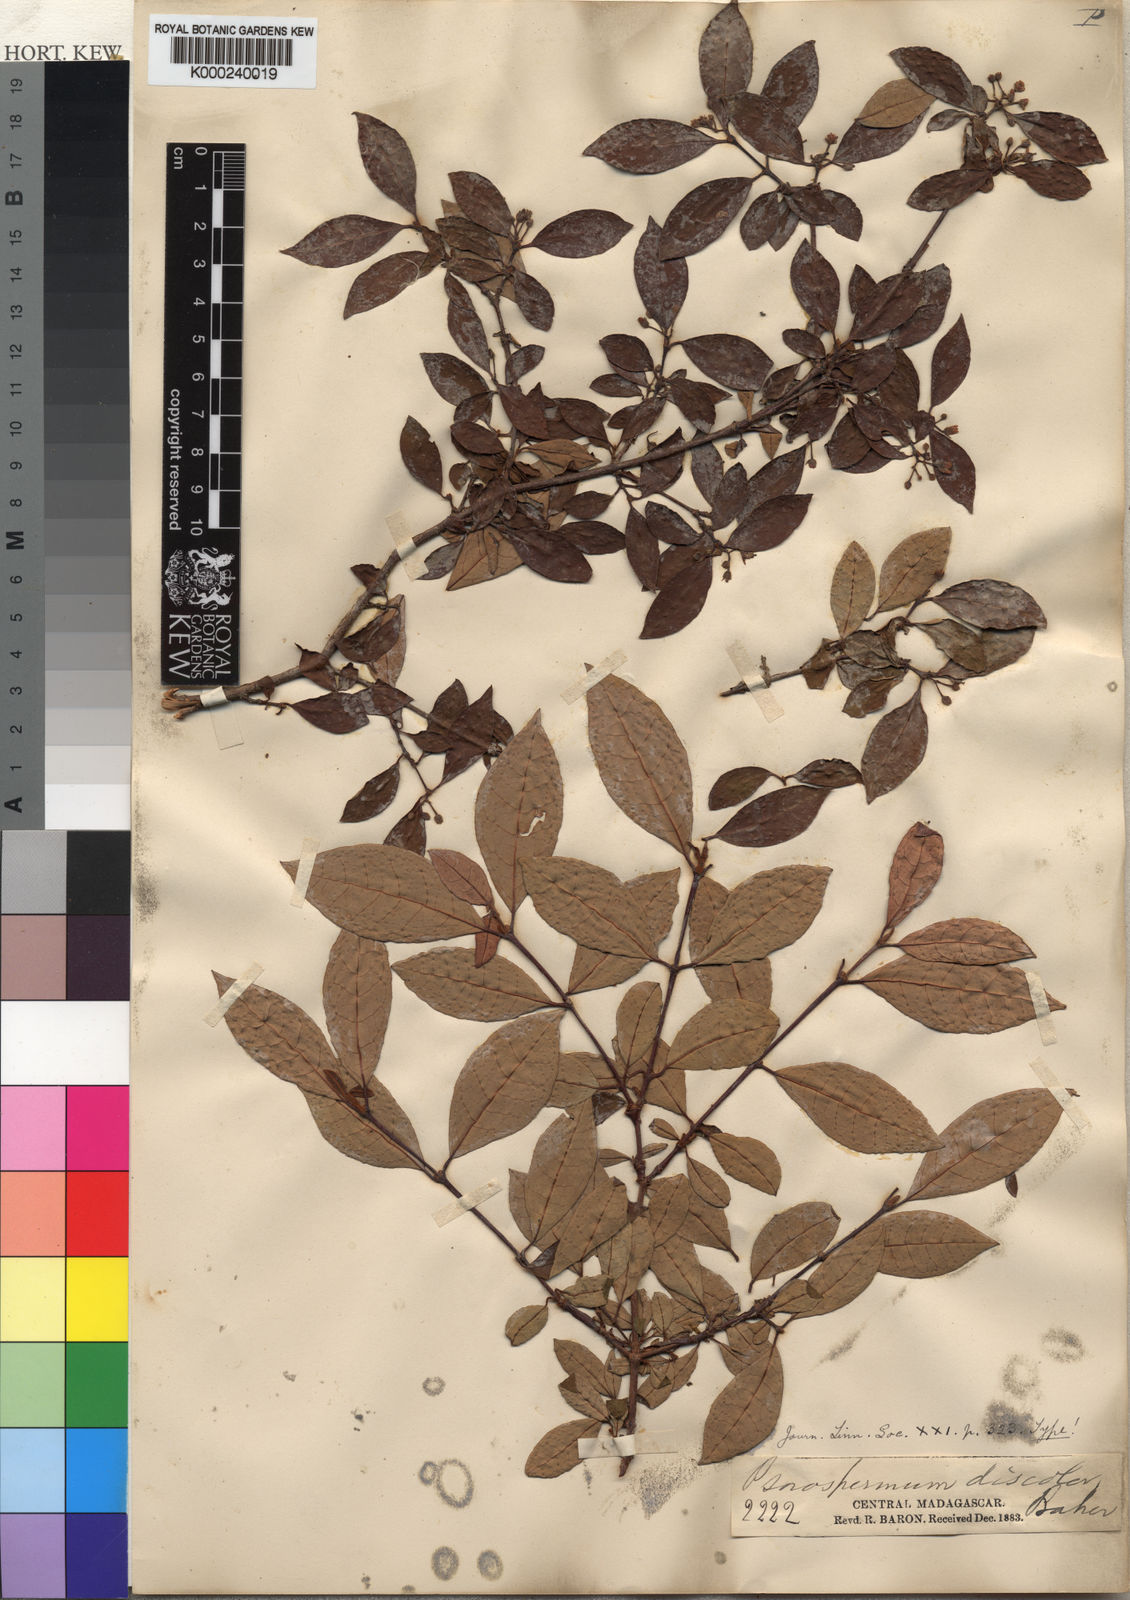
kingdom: Plantae
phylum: Tracheophyta
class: Magnoliopsida
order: Malpighiales
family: Hypericaceae
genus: Psorospermum
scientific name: Psorospermum molluscum
